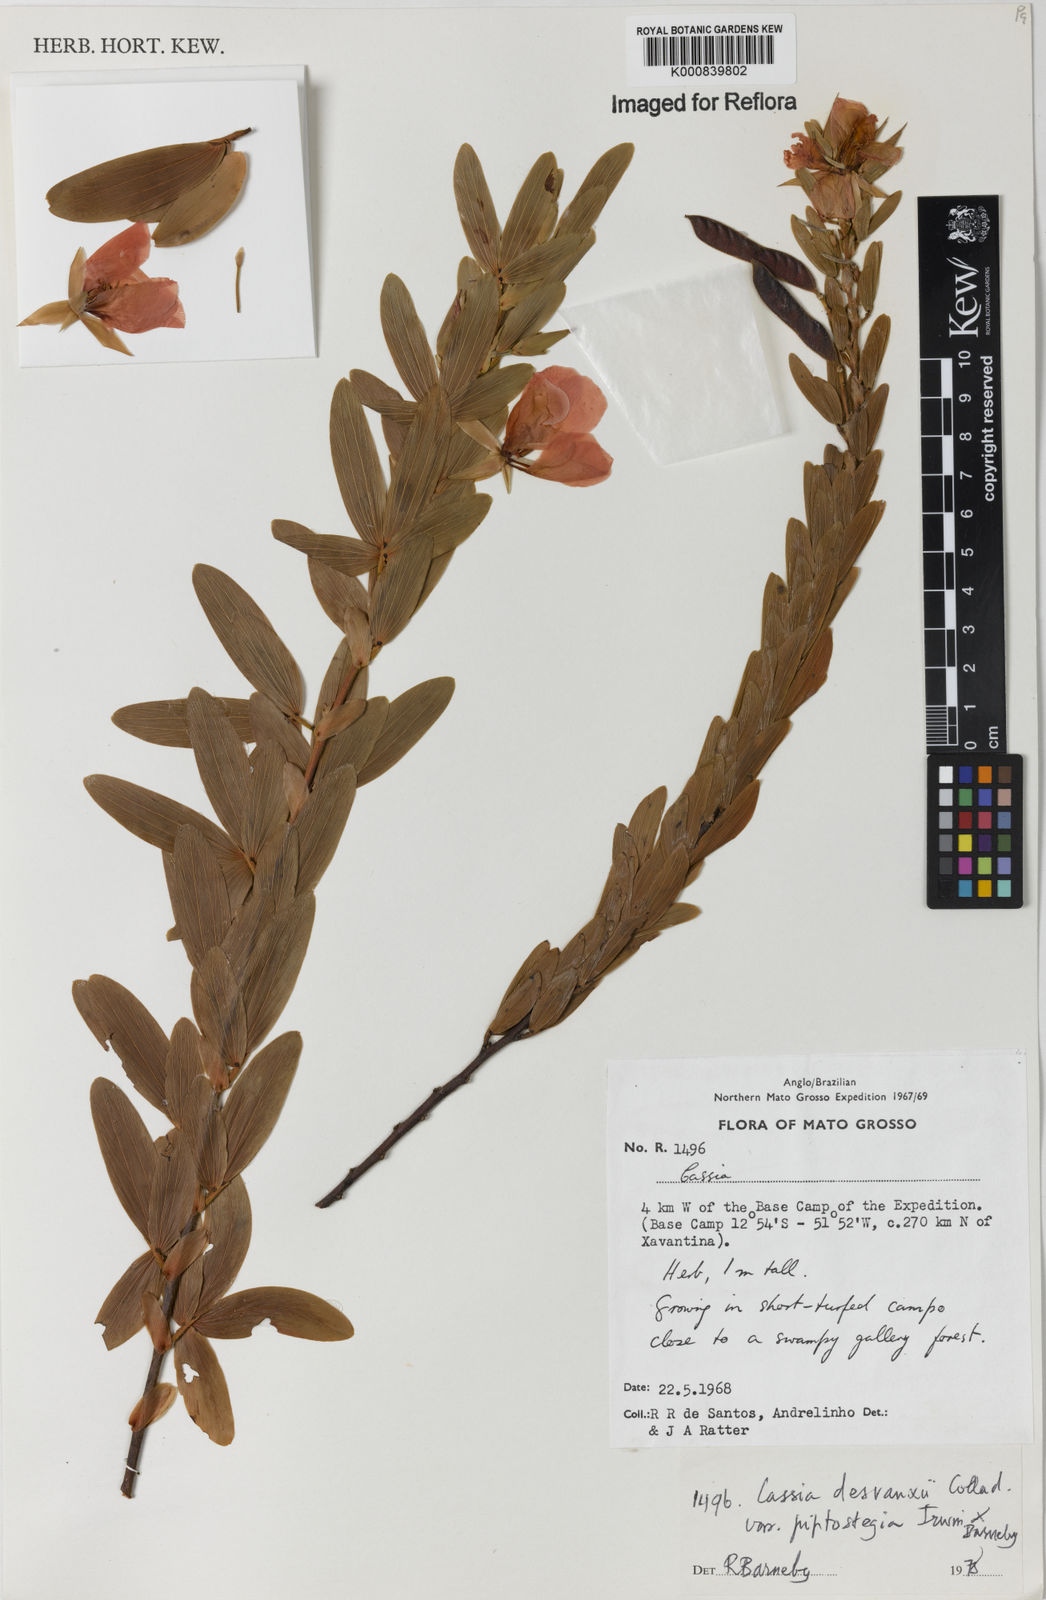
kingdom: Plantae
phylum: Tracheophyta
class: Magnoliopsida
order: Fabales
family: Fabaceae
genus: Chamaecrista
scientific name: Chamaecrista desvauxii
